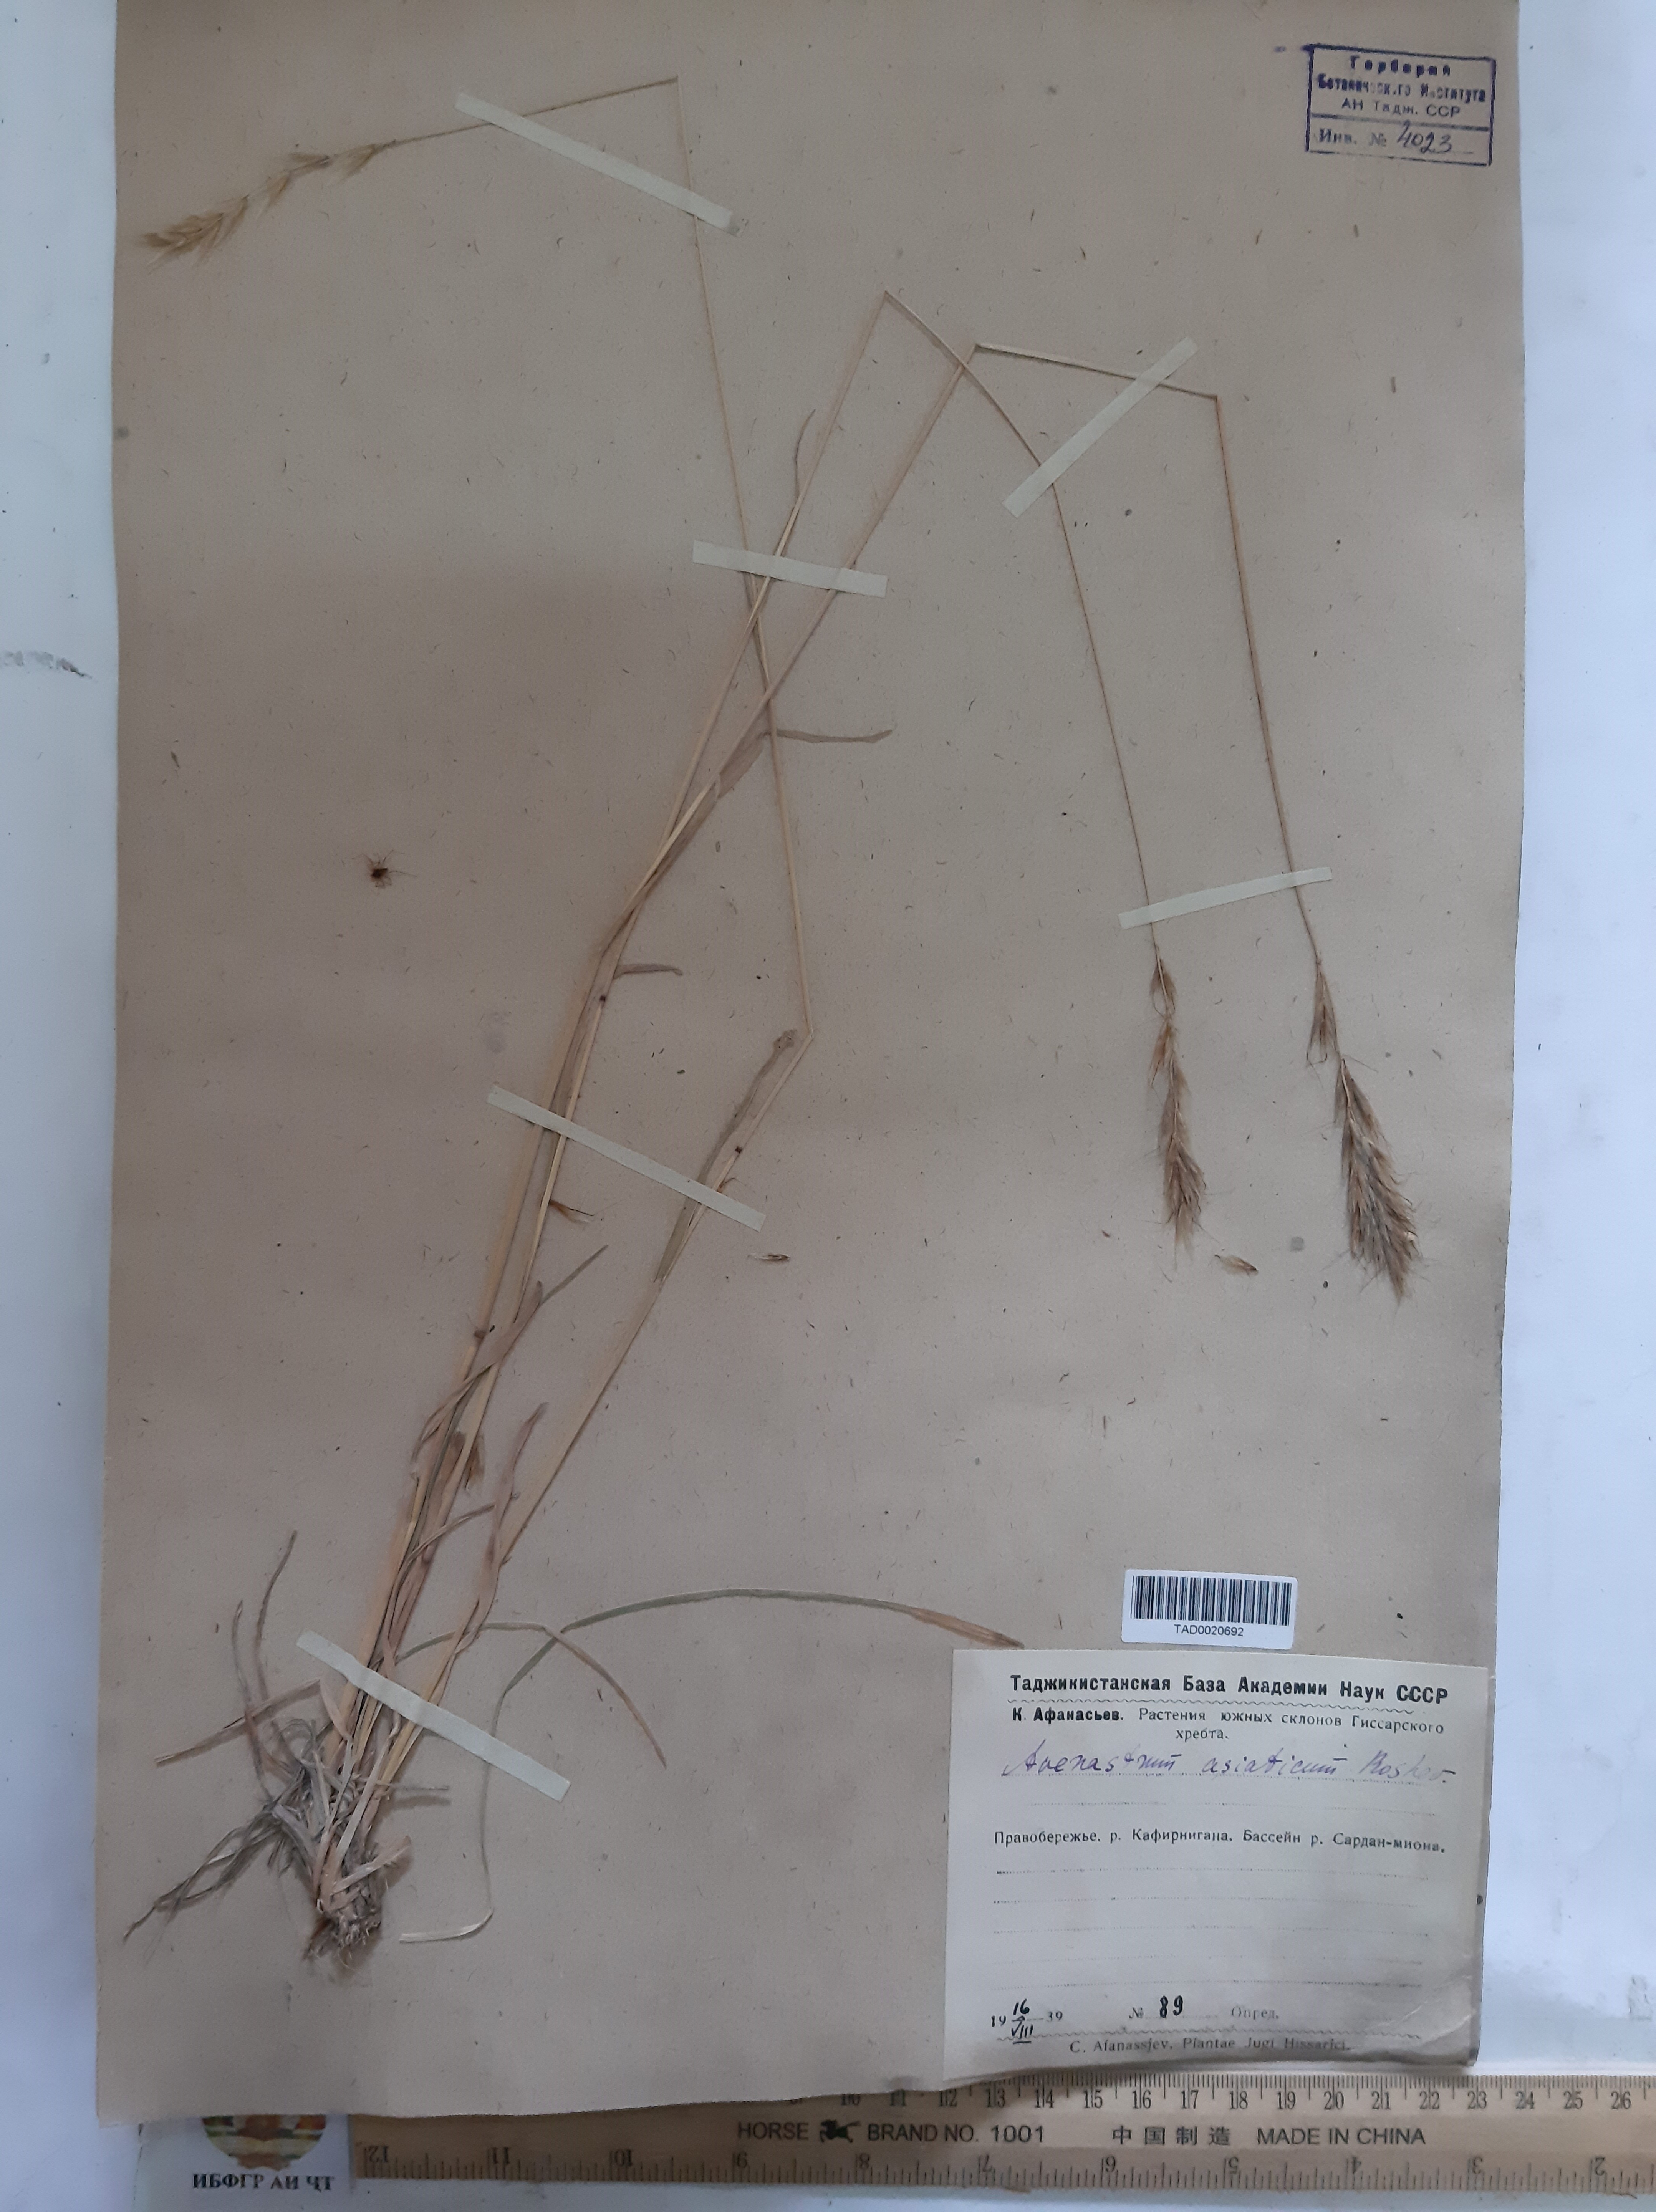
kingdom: Plantae
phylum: Tracheophyta
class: Liliopsida
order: Poales
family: Poaceae
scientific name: Poaceae
